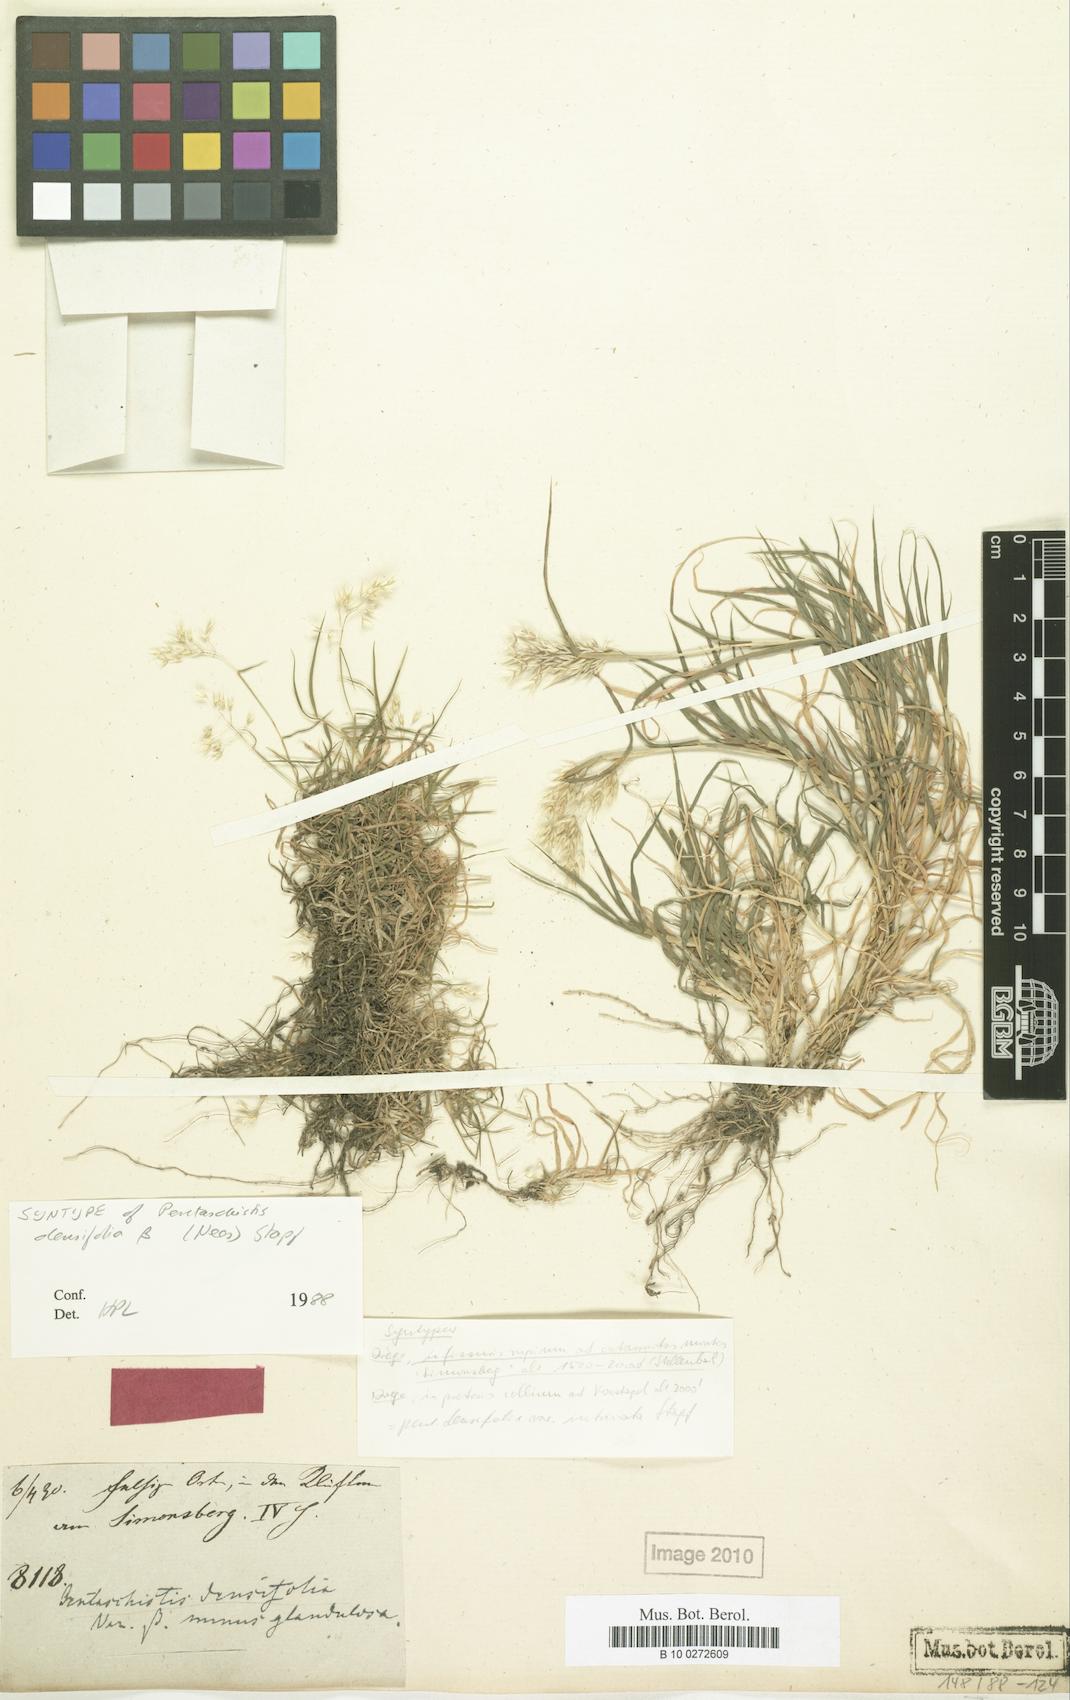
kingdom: Plantae
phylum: Tracheophyta
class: Liliopsida
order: Poales
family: Poaceae
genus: Pentameris
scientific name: Pentameris densifolia
